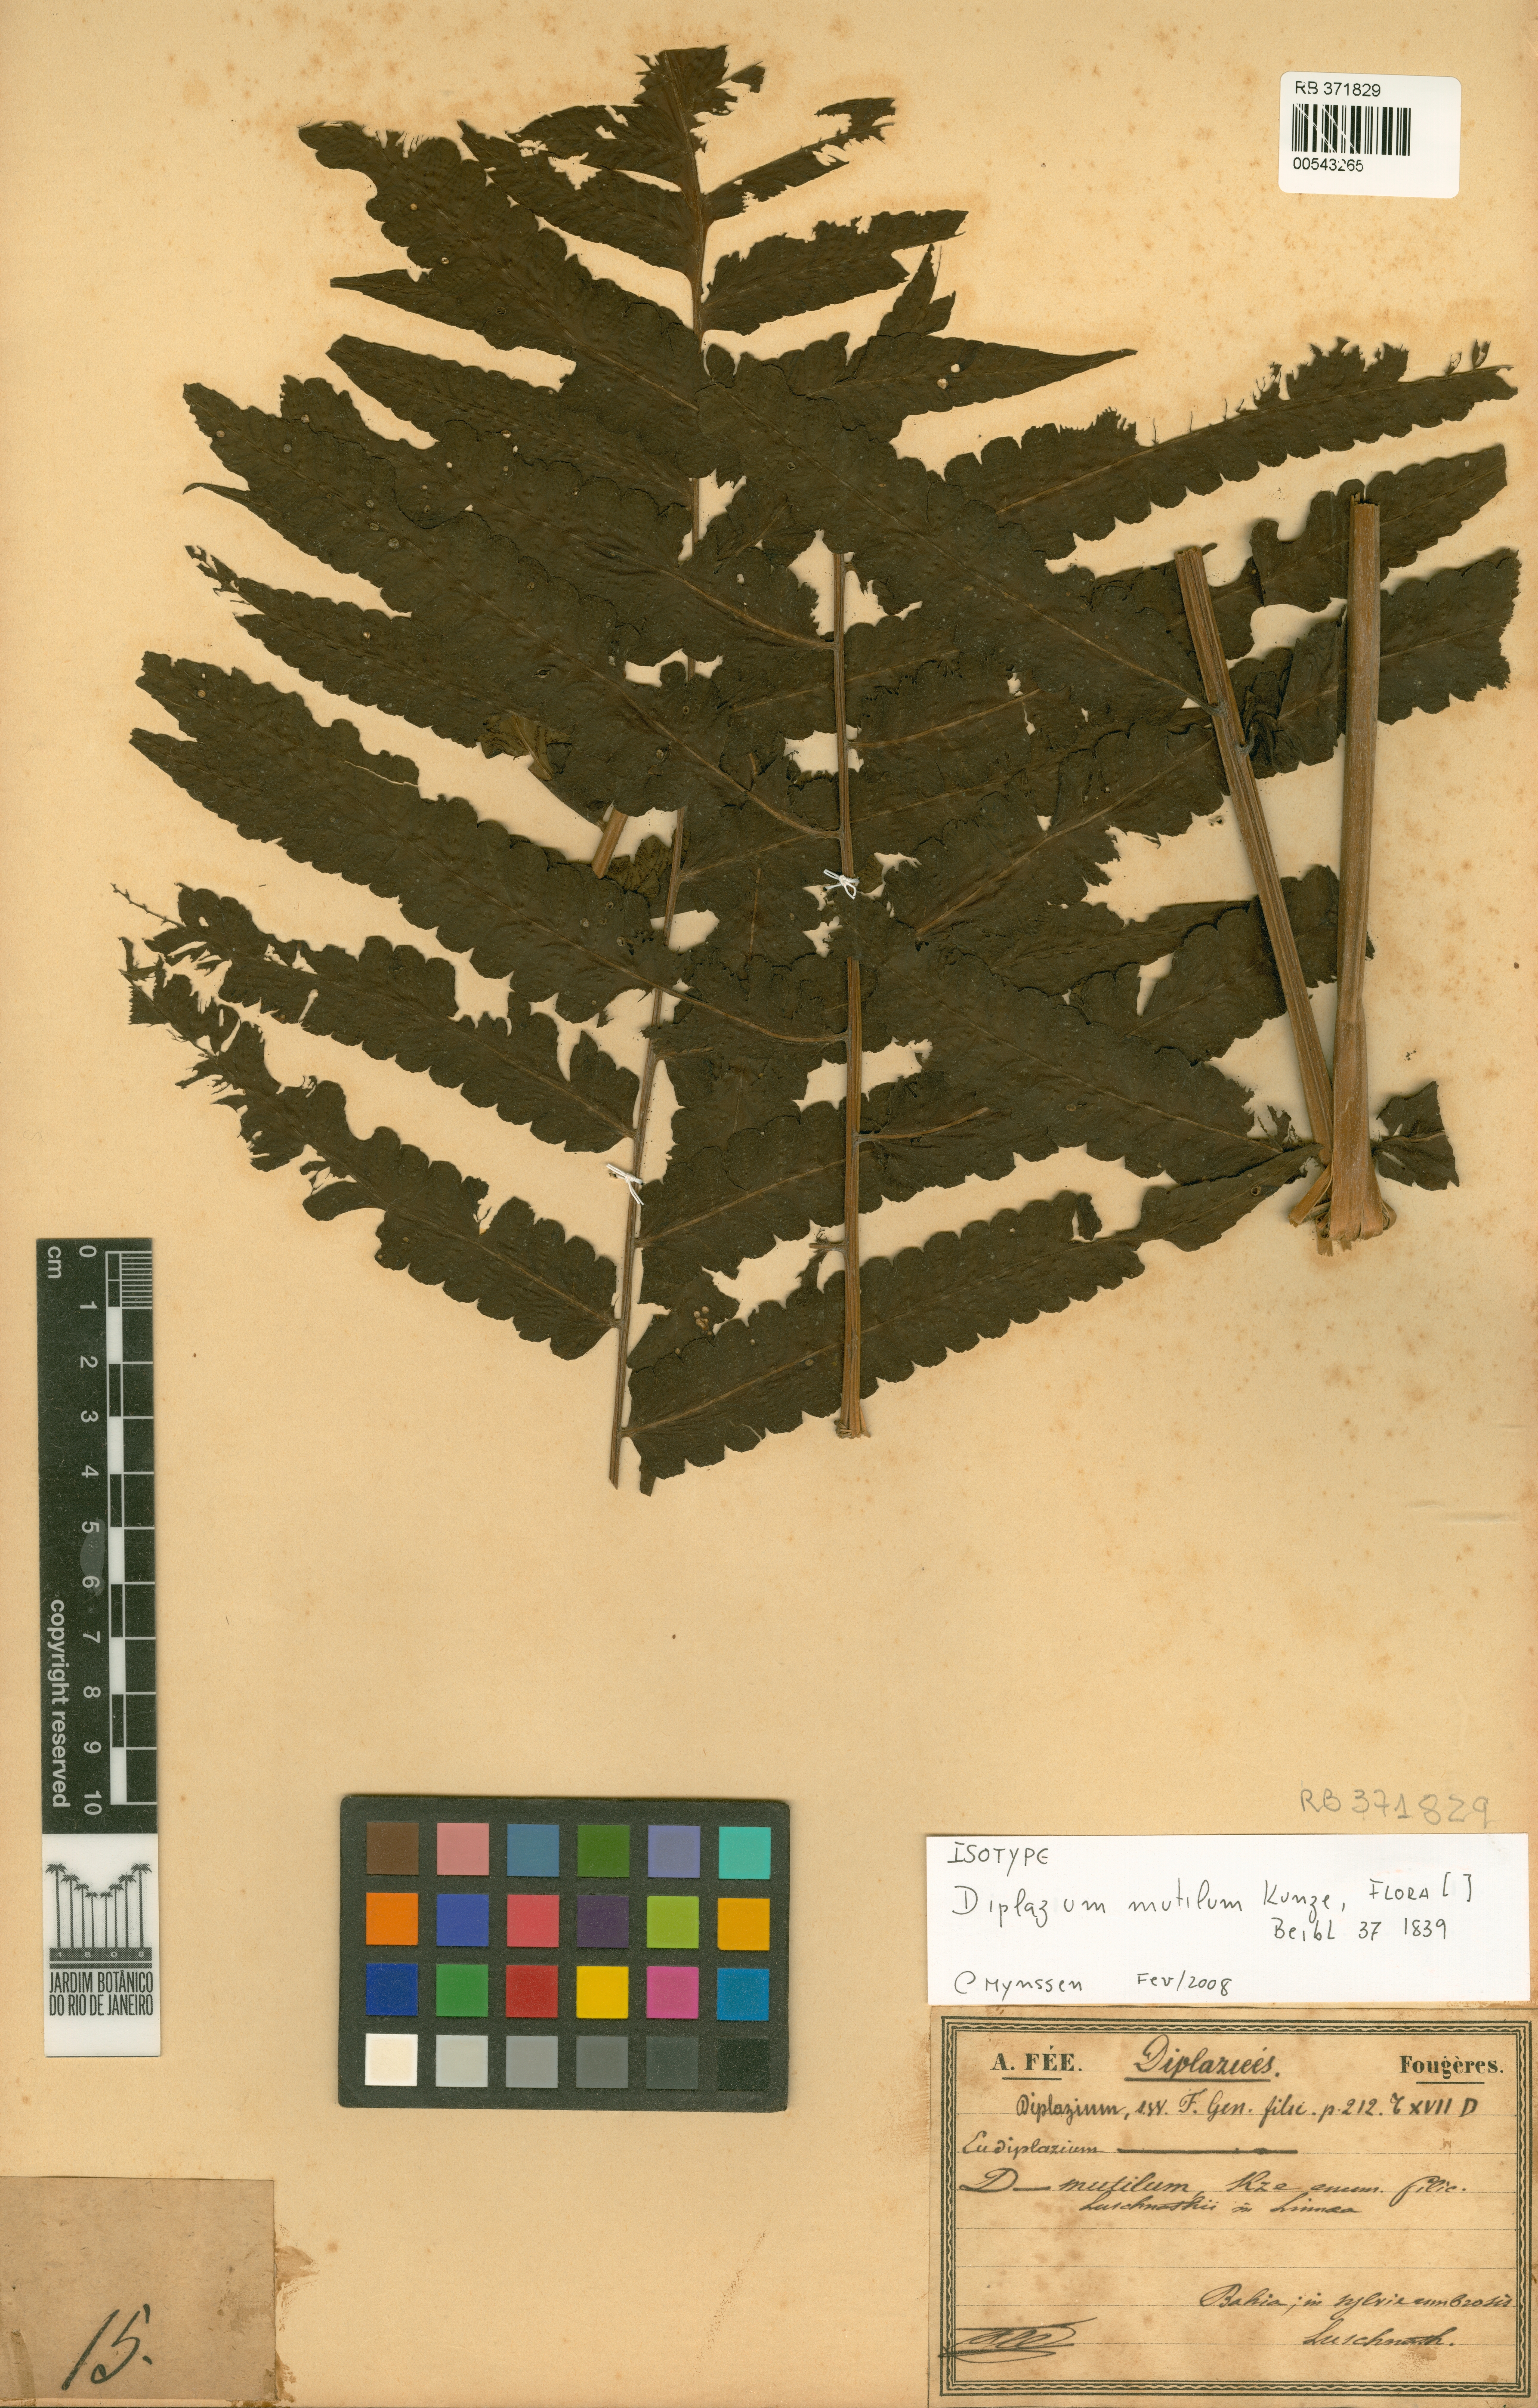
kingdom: Plantae
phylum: Tracheophyta
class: Polypodiopsida
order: Polypodiales
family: Athyriaceae
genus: Diplazium
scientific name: Diplazium mutilum
